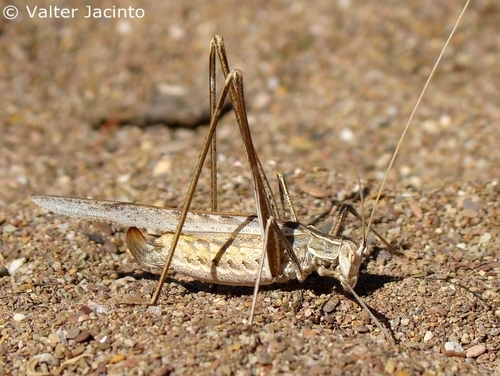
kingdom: Animalia
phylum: Arthropoda
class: Insecta
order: Orthoptera
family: Tettigoniidae
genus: Tylopsis
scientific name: Tylopsis lilifolia
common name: Lily bush-cricket
